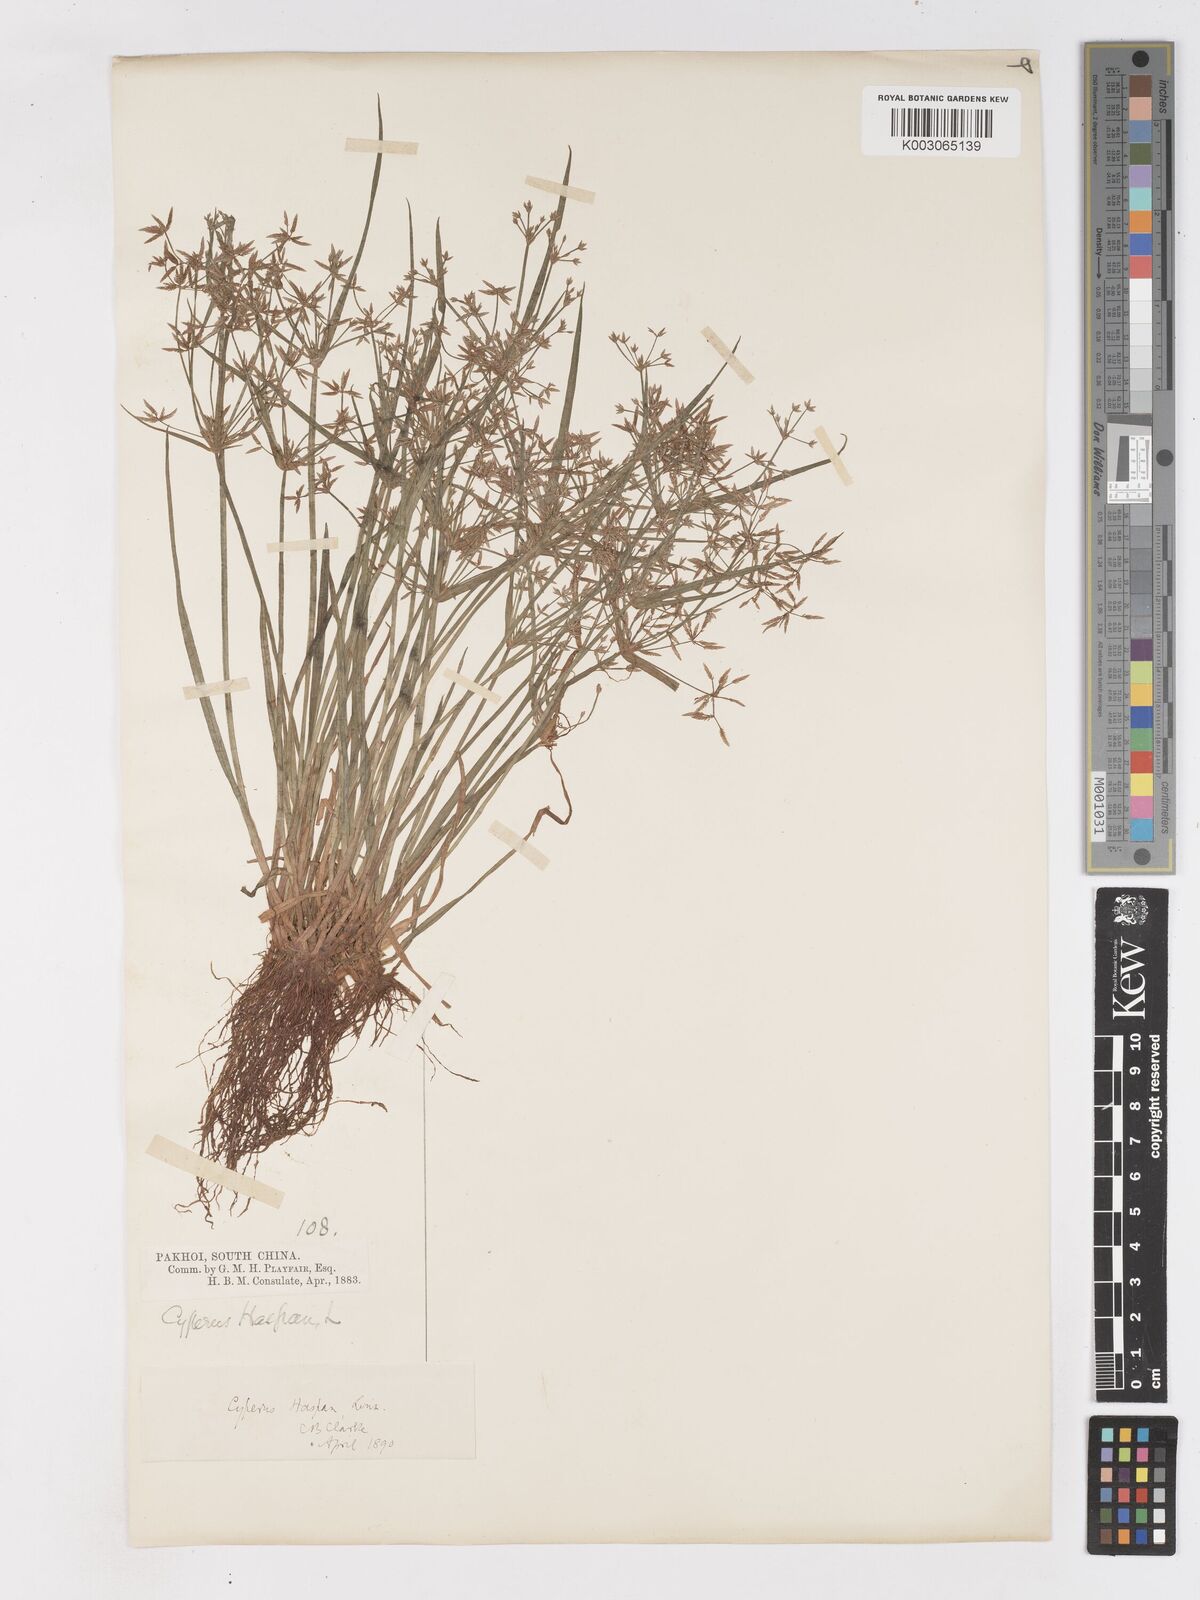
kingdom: Plantae
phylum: Tracheophyta
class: Liliopsida
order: Poales
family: Cyperaceae
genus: Cyperus
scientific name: Cyperus haspan
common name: Haspan flatsedge
